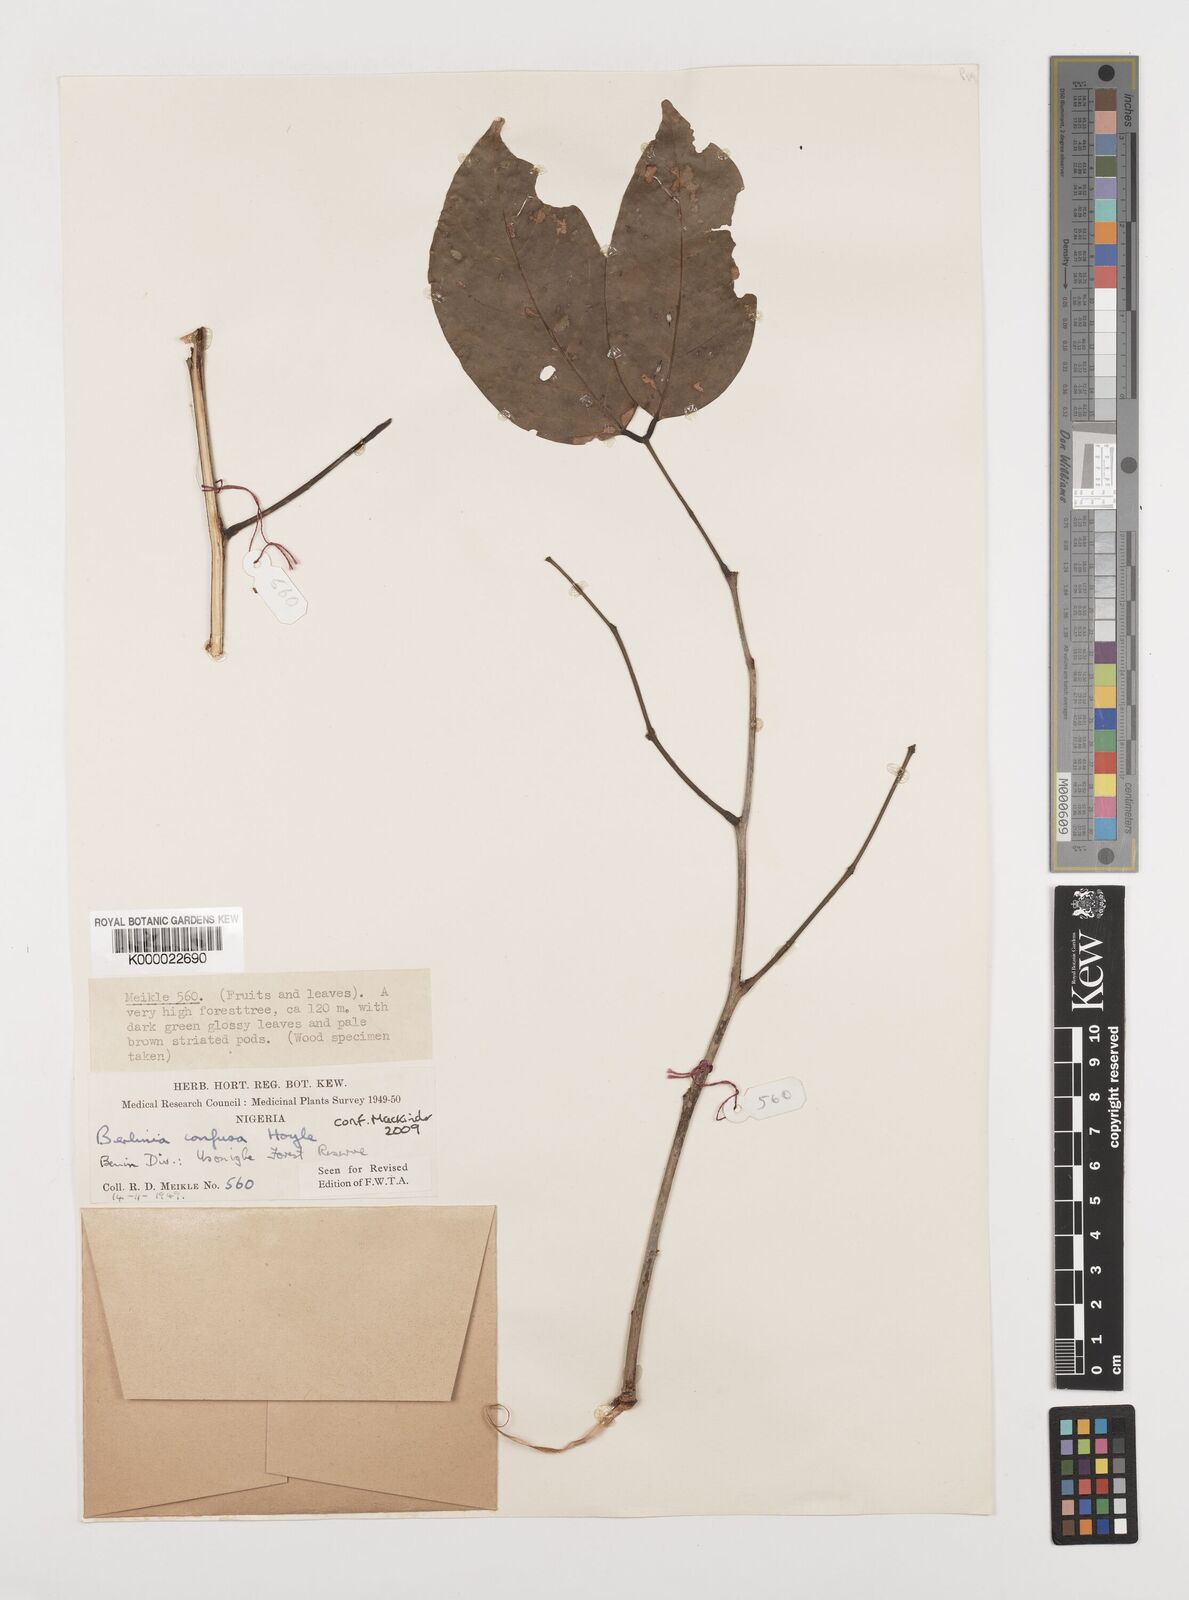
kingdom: Plantae
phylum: Tracheophyta
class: Magnoliopsida
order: Fabales
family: Fabaceae
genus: Berlinia
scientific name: Berlinia confusa
